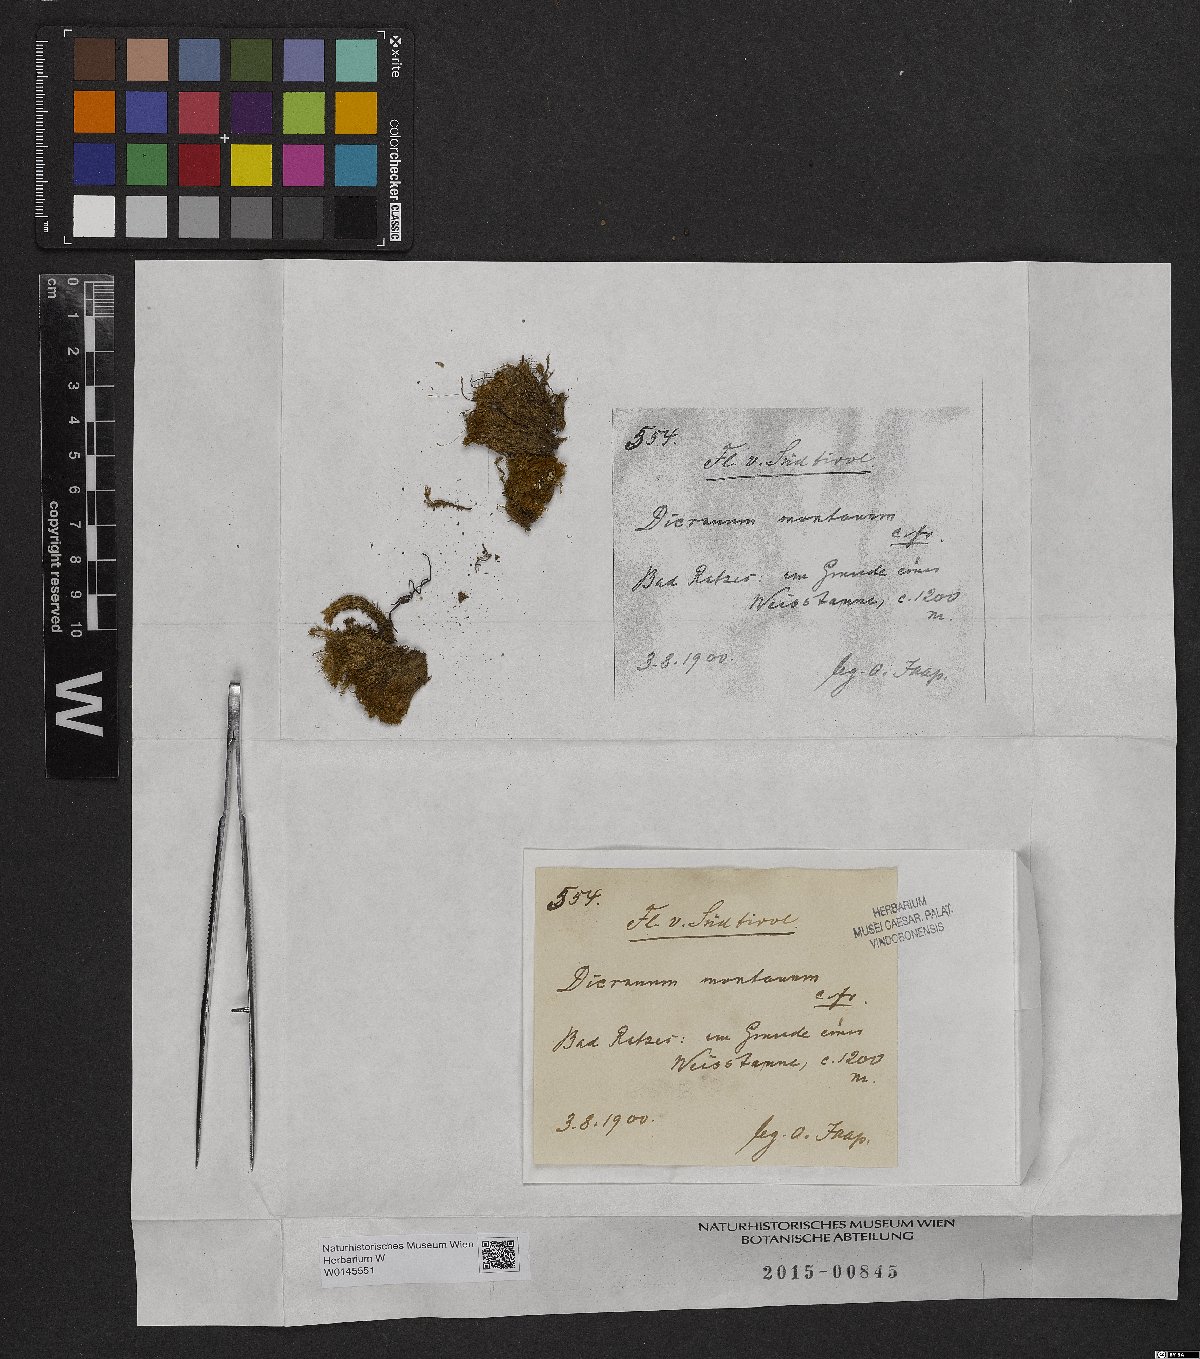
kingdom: Plantae
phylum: Bryophyta
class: Bryopsida
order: Dicranales
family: Dicranaceae
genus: Orthodicranum
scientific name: Orthodicranum montanum
